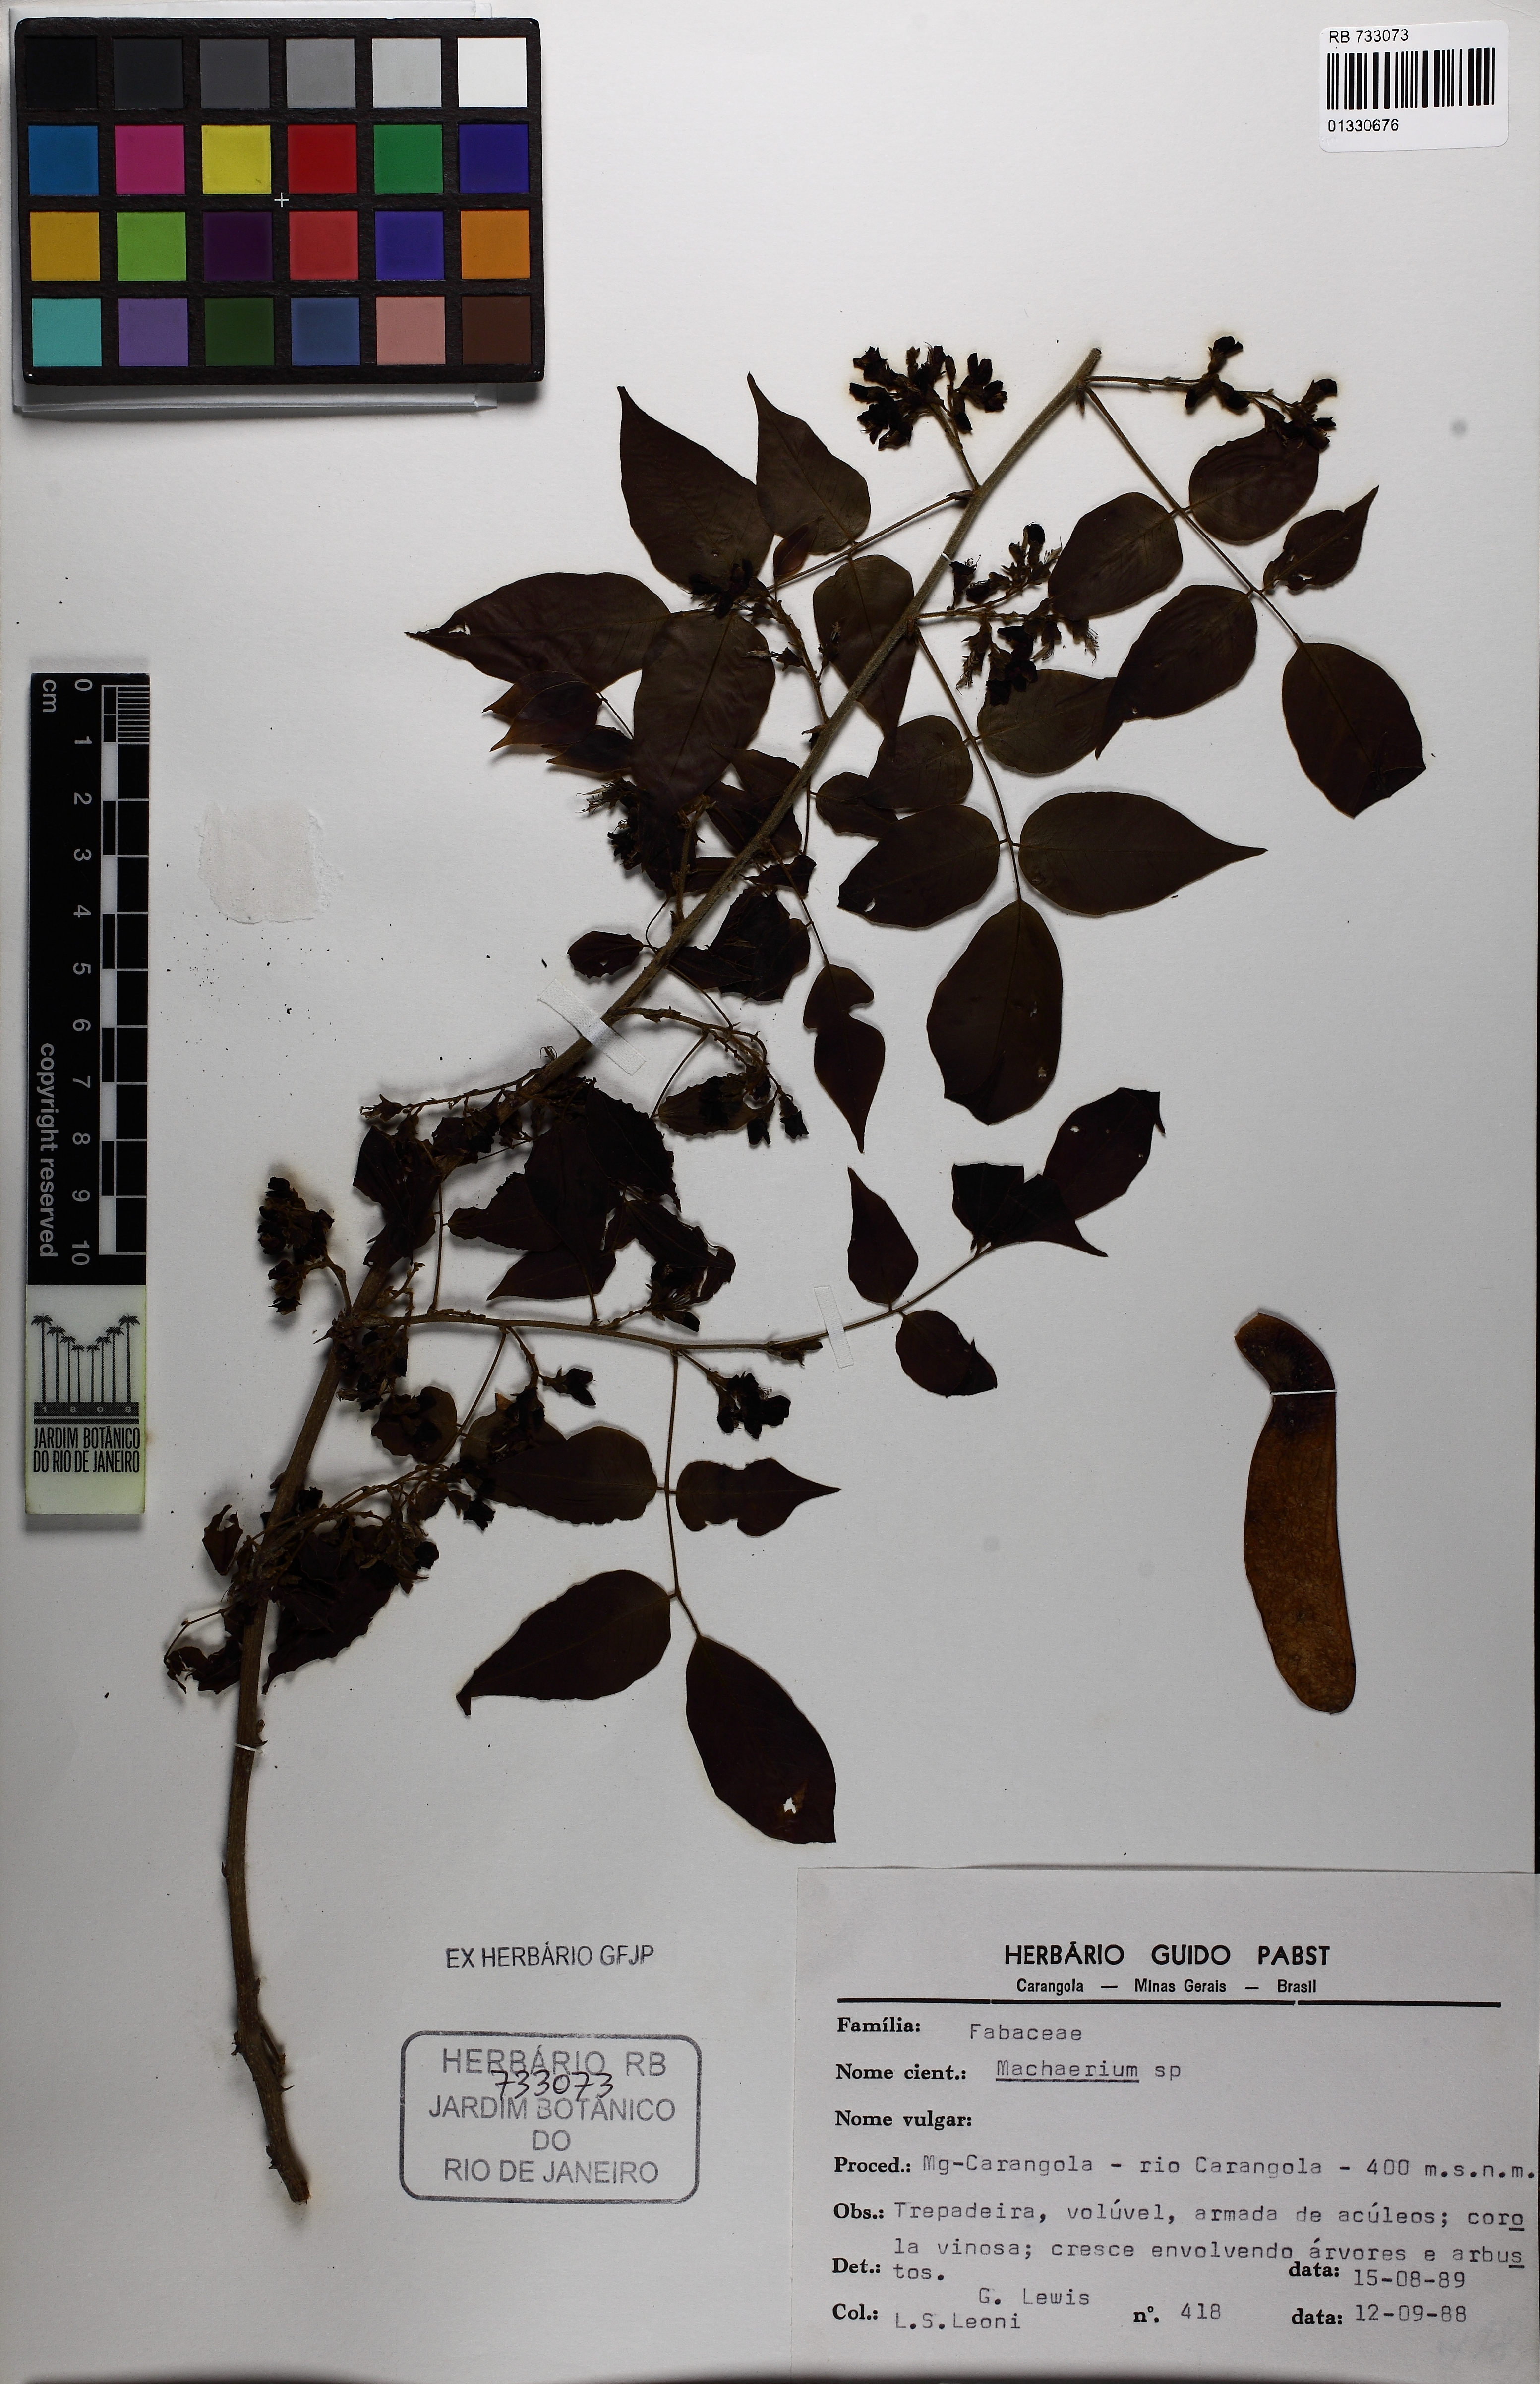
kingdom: Plantae
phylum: Tracheophyta
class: Magnoliopsida
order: Fabales
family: Fabaceae
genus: Machaerium
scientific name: Machaerium
